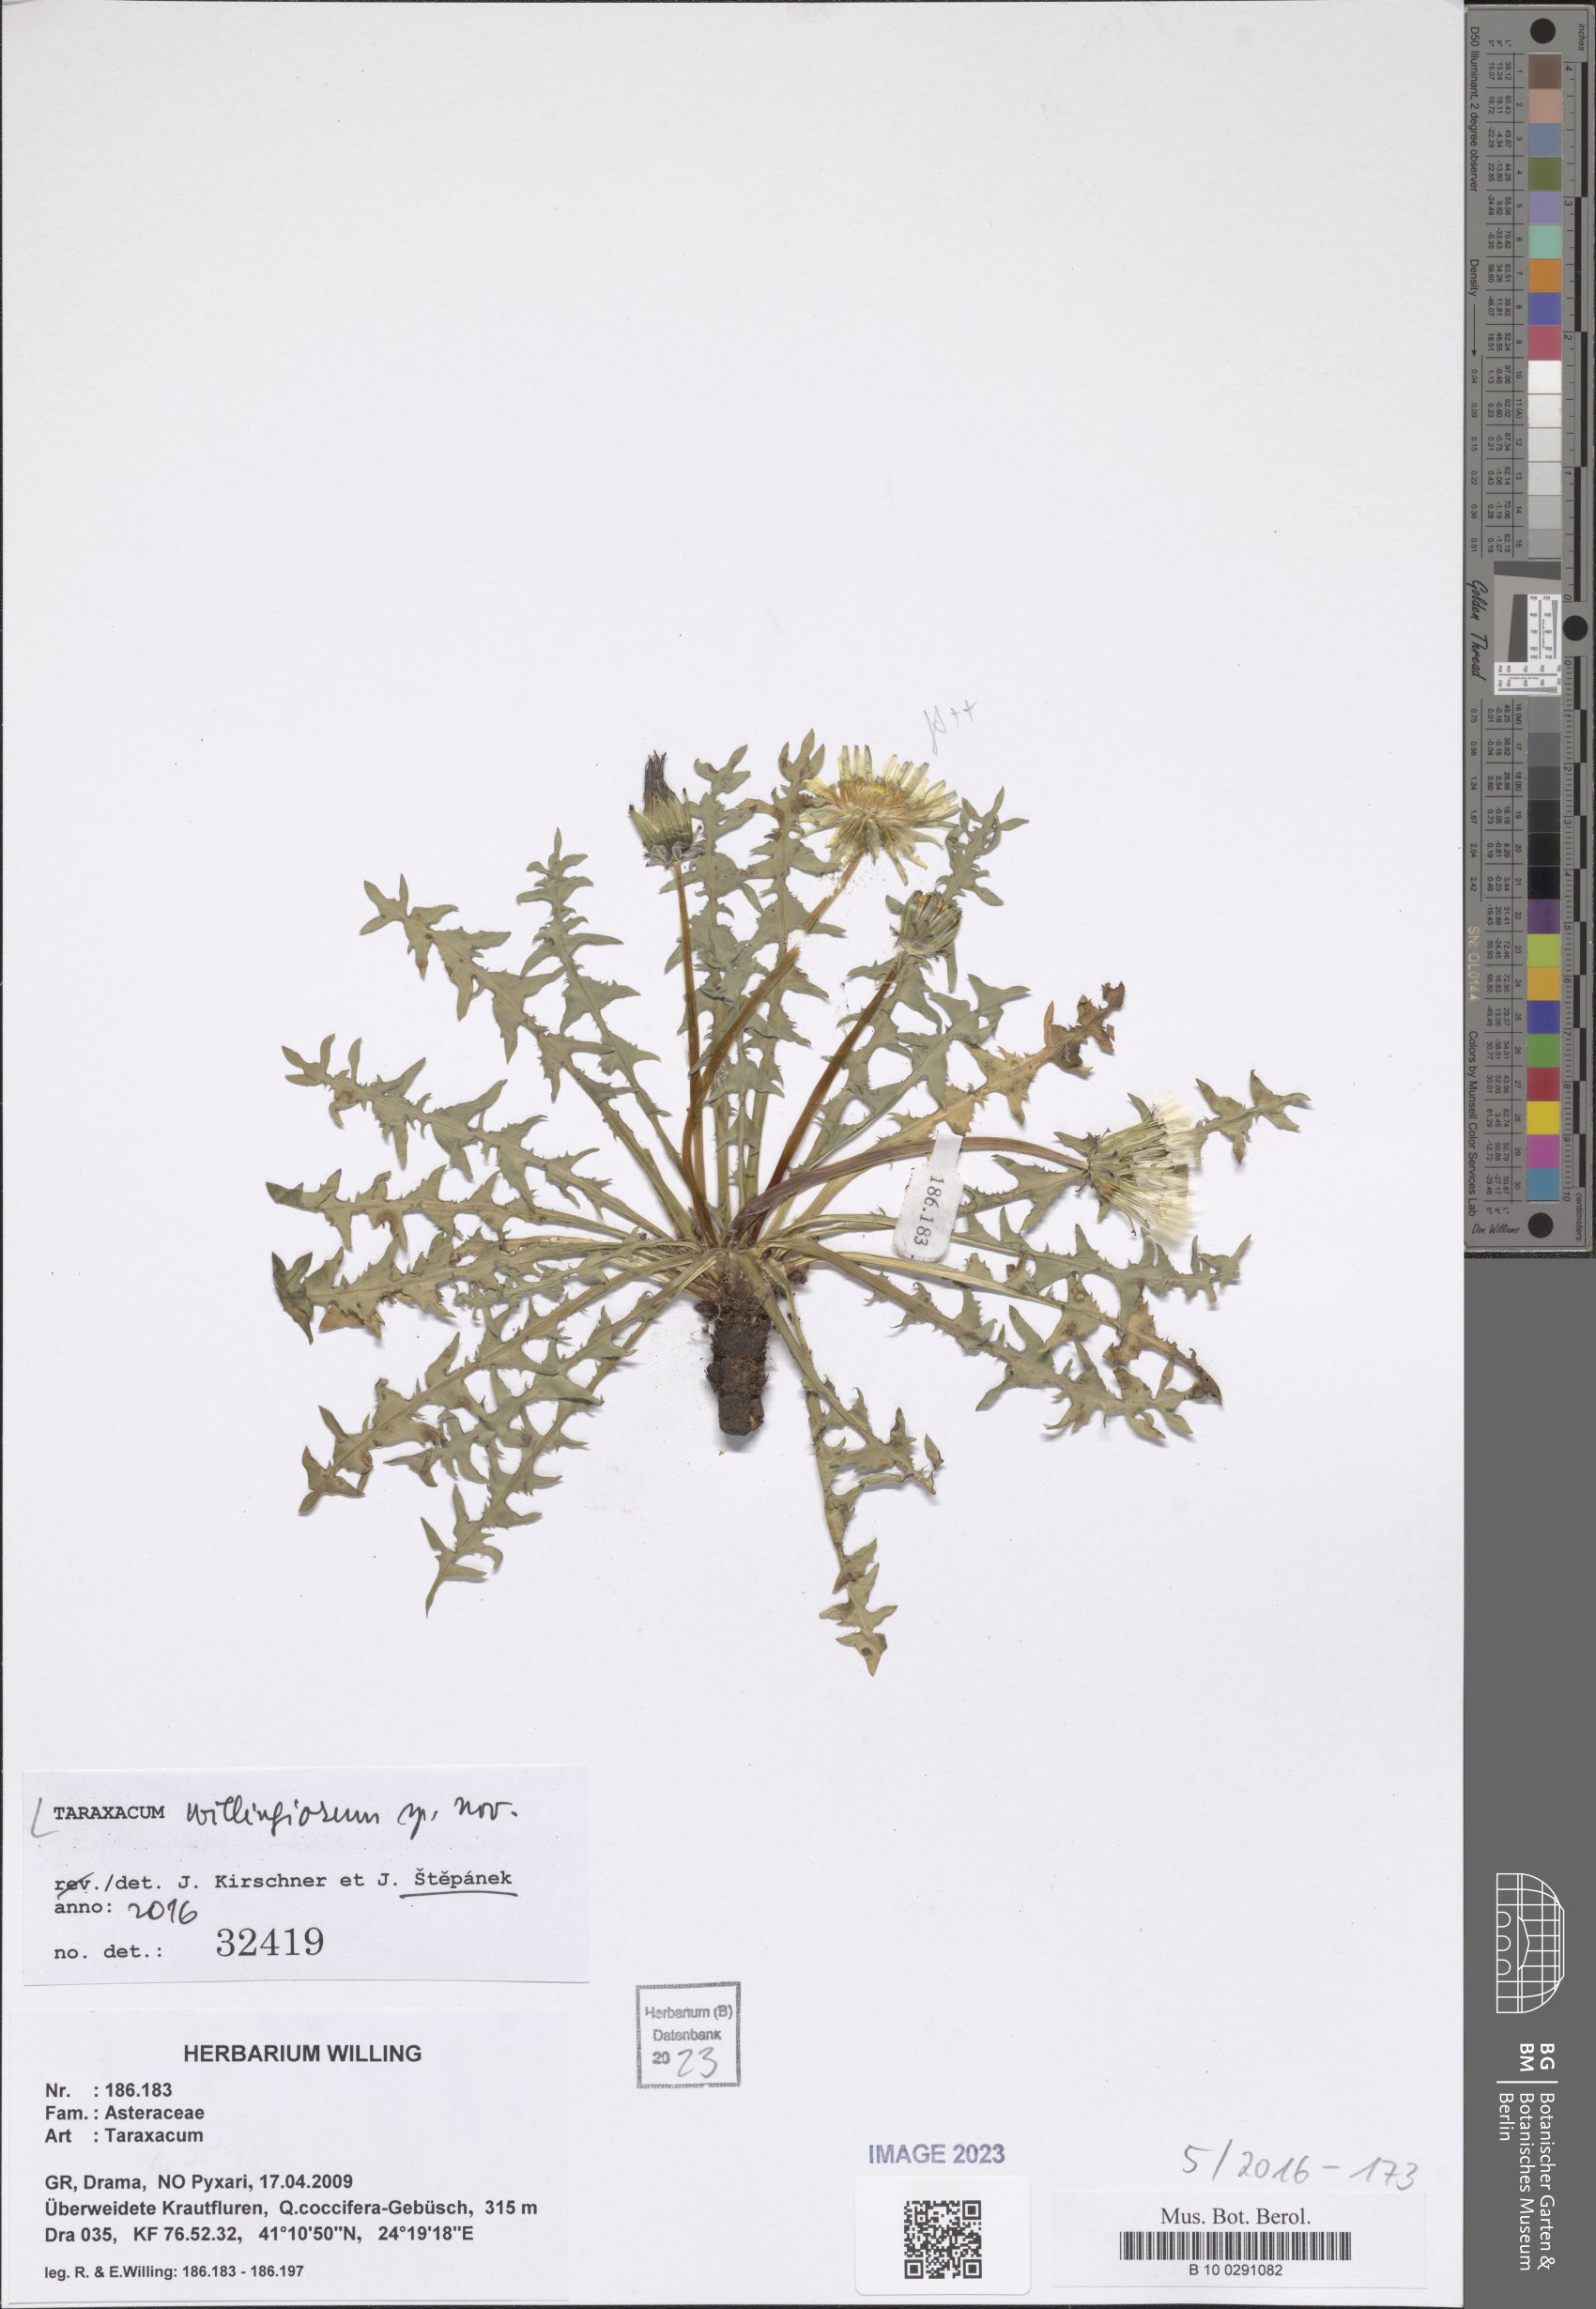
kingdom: Plantae
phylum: Tracheophyta
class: Magnoliopsida
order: Asterales
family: Asteraceae
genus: Taraxacum
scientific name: Taraxacum
